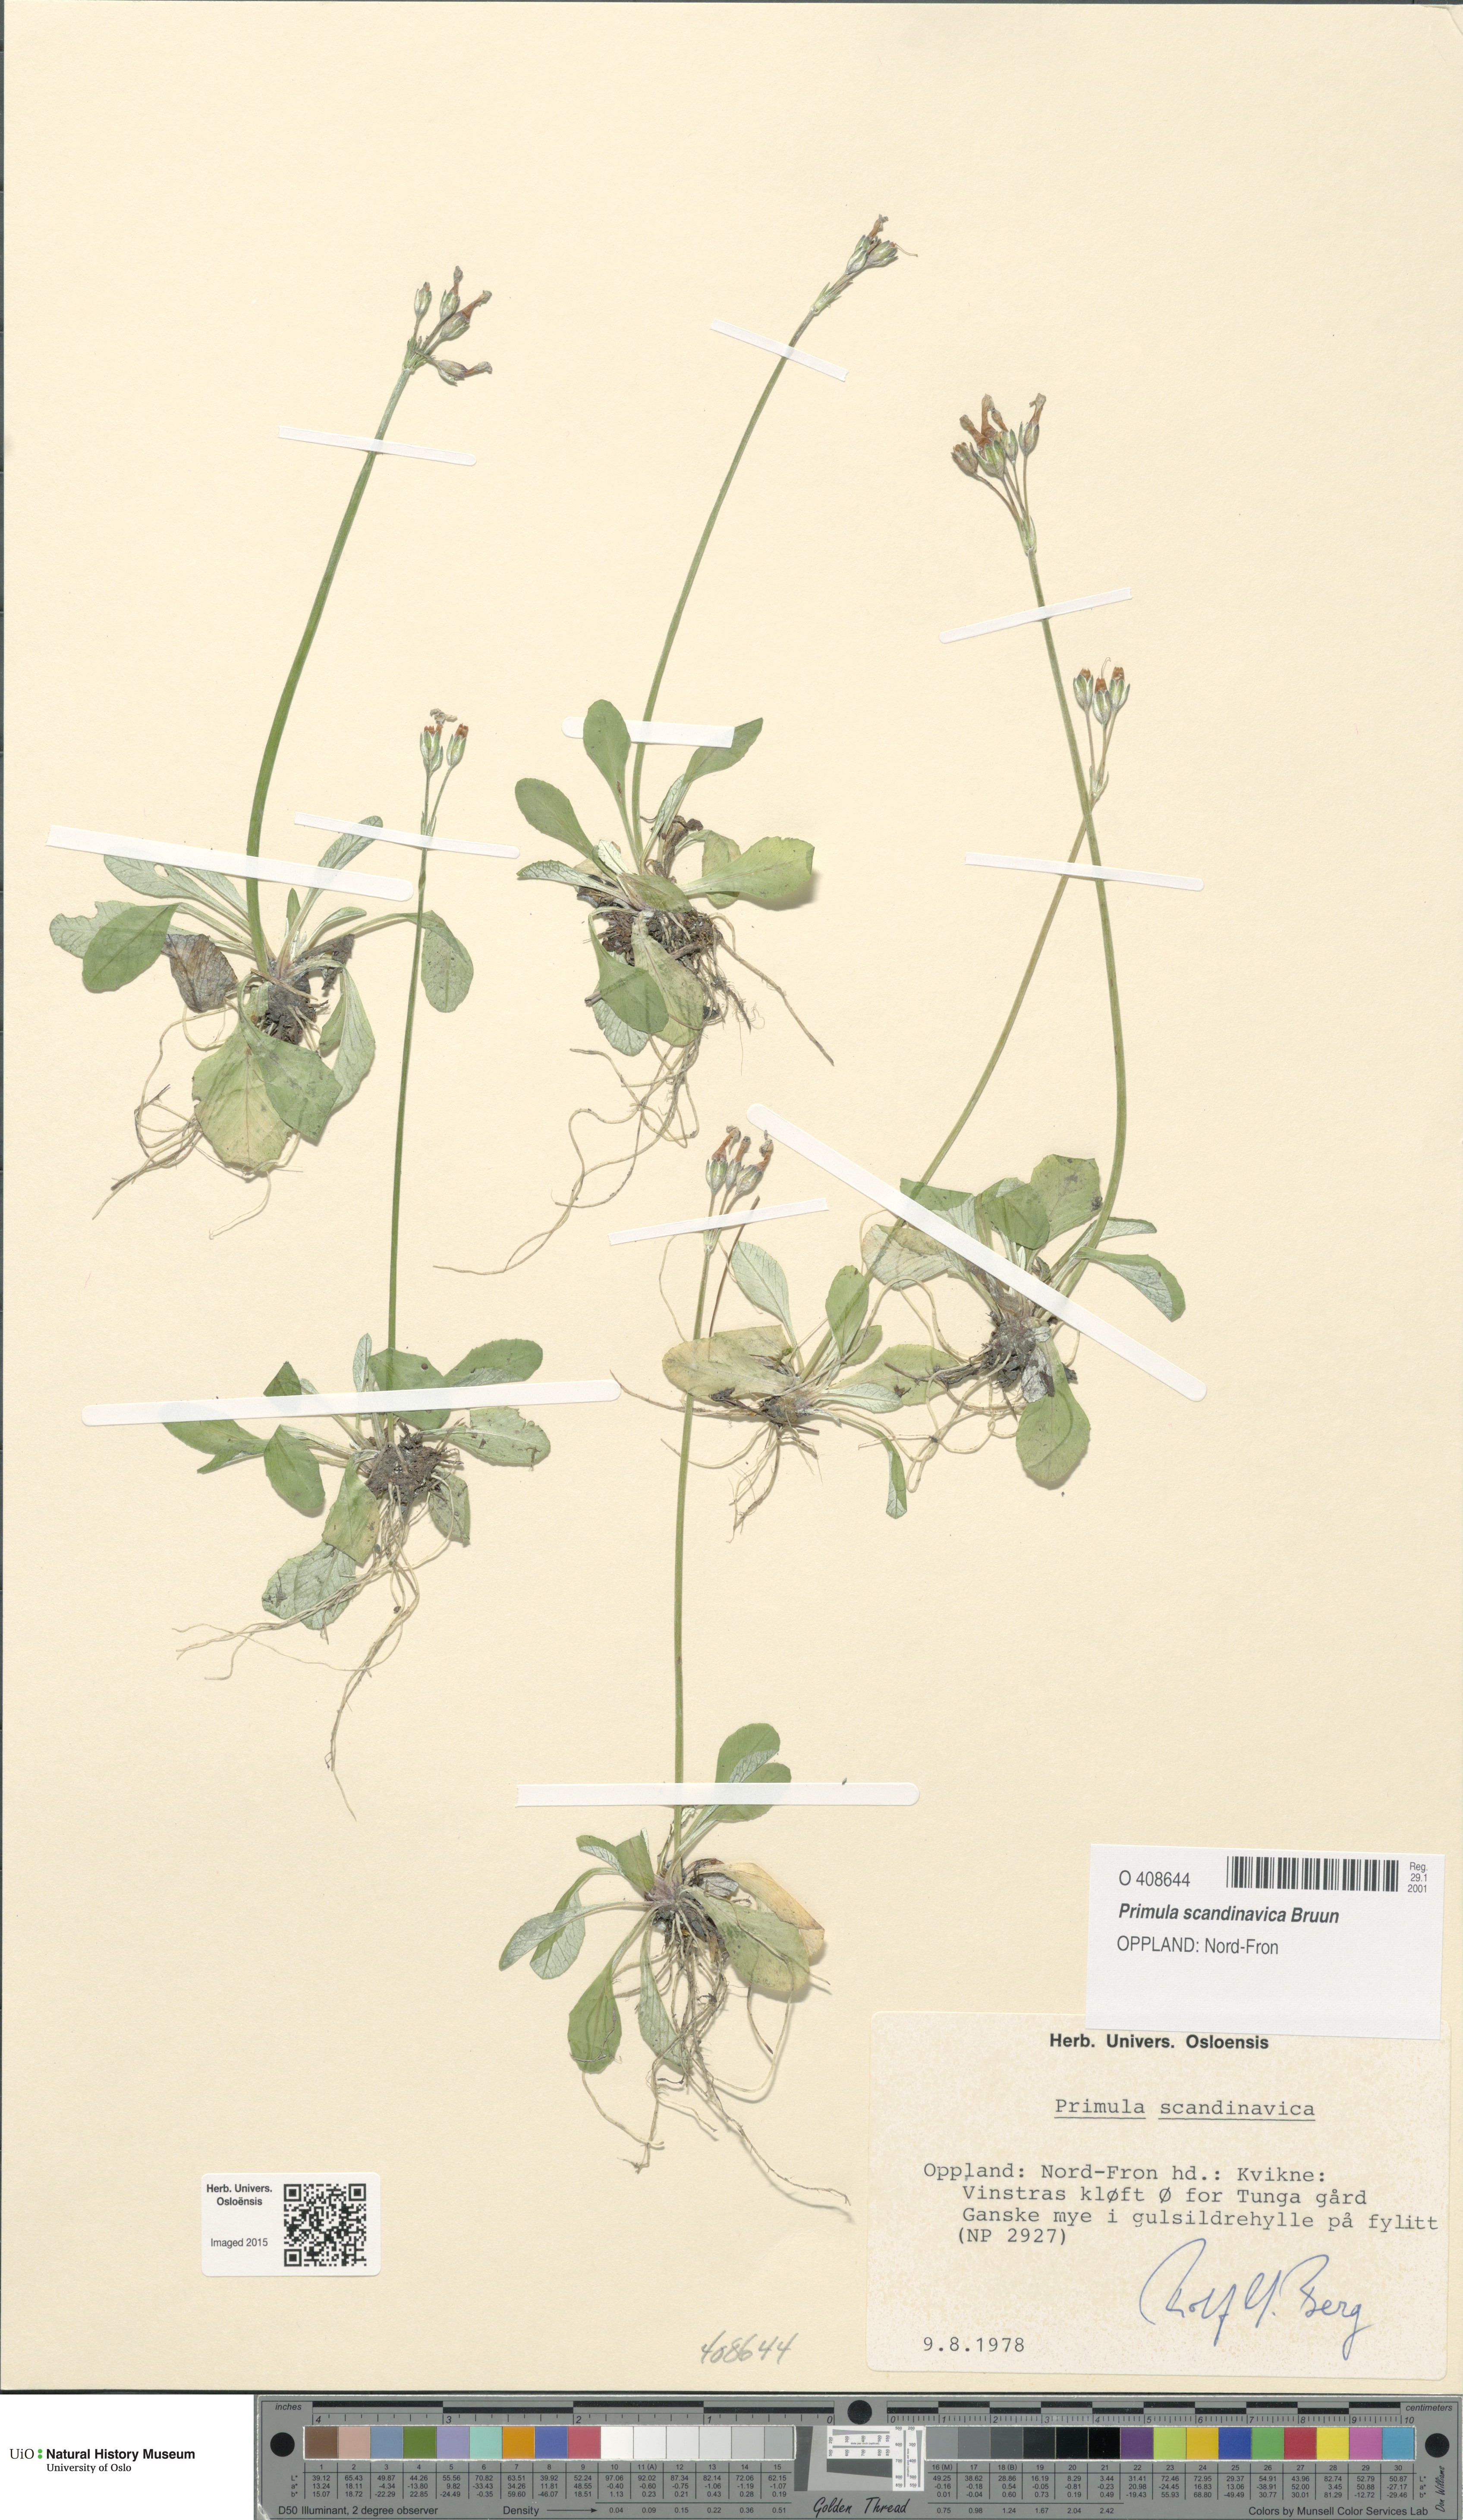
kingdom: Plantae
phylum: Tracheophyta
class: Magnoliopsida
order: Ericales
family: Primulaceae
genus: Primula
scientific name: Primula scandinavica
